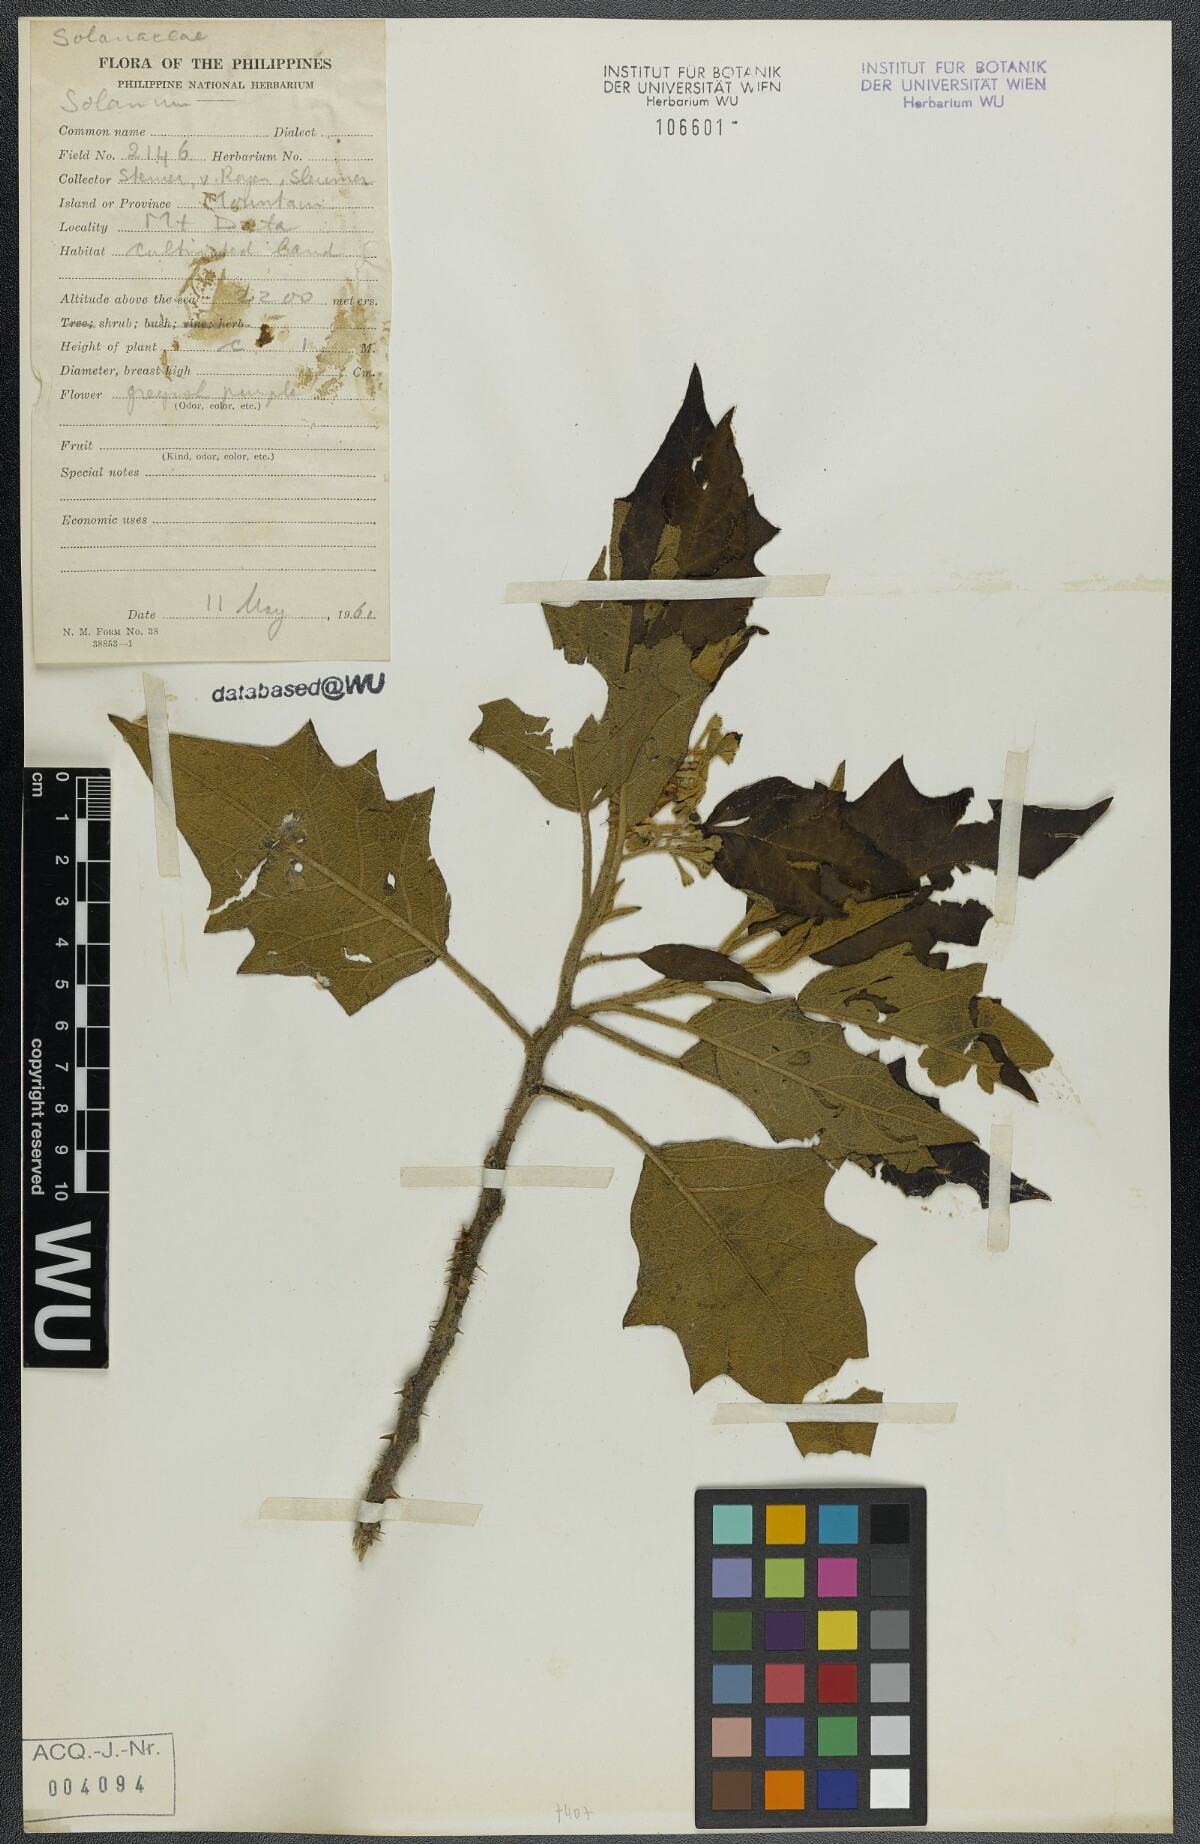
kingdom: Plantae
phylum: Tracheophyta
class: Magnoliopsida
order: Solanales
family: Solanaceae
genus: Solanum
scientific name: Solanum
